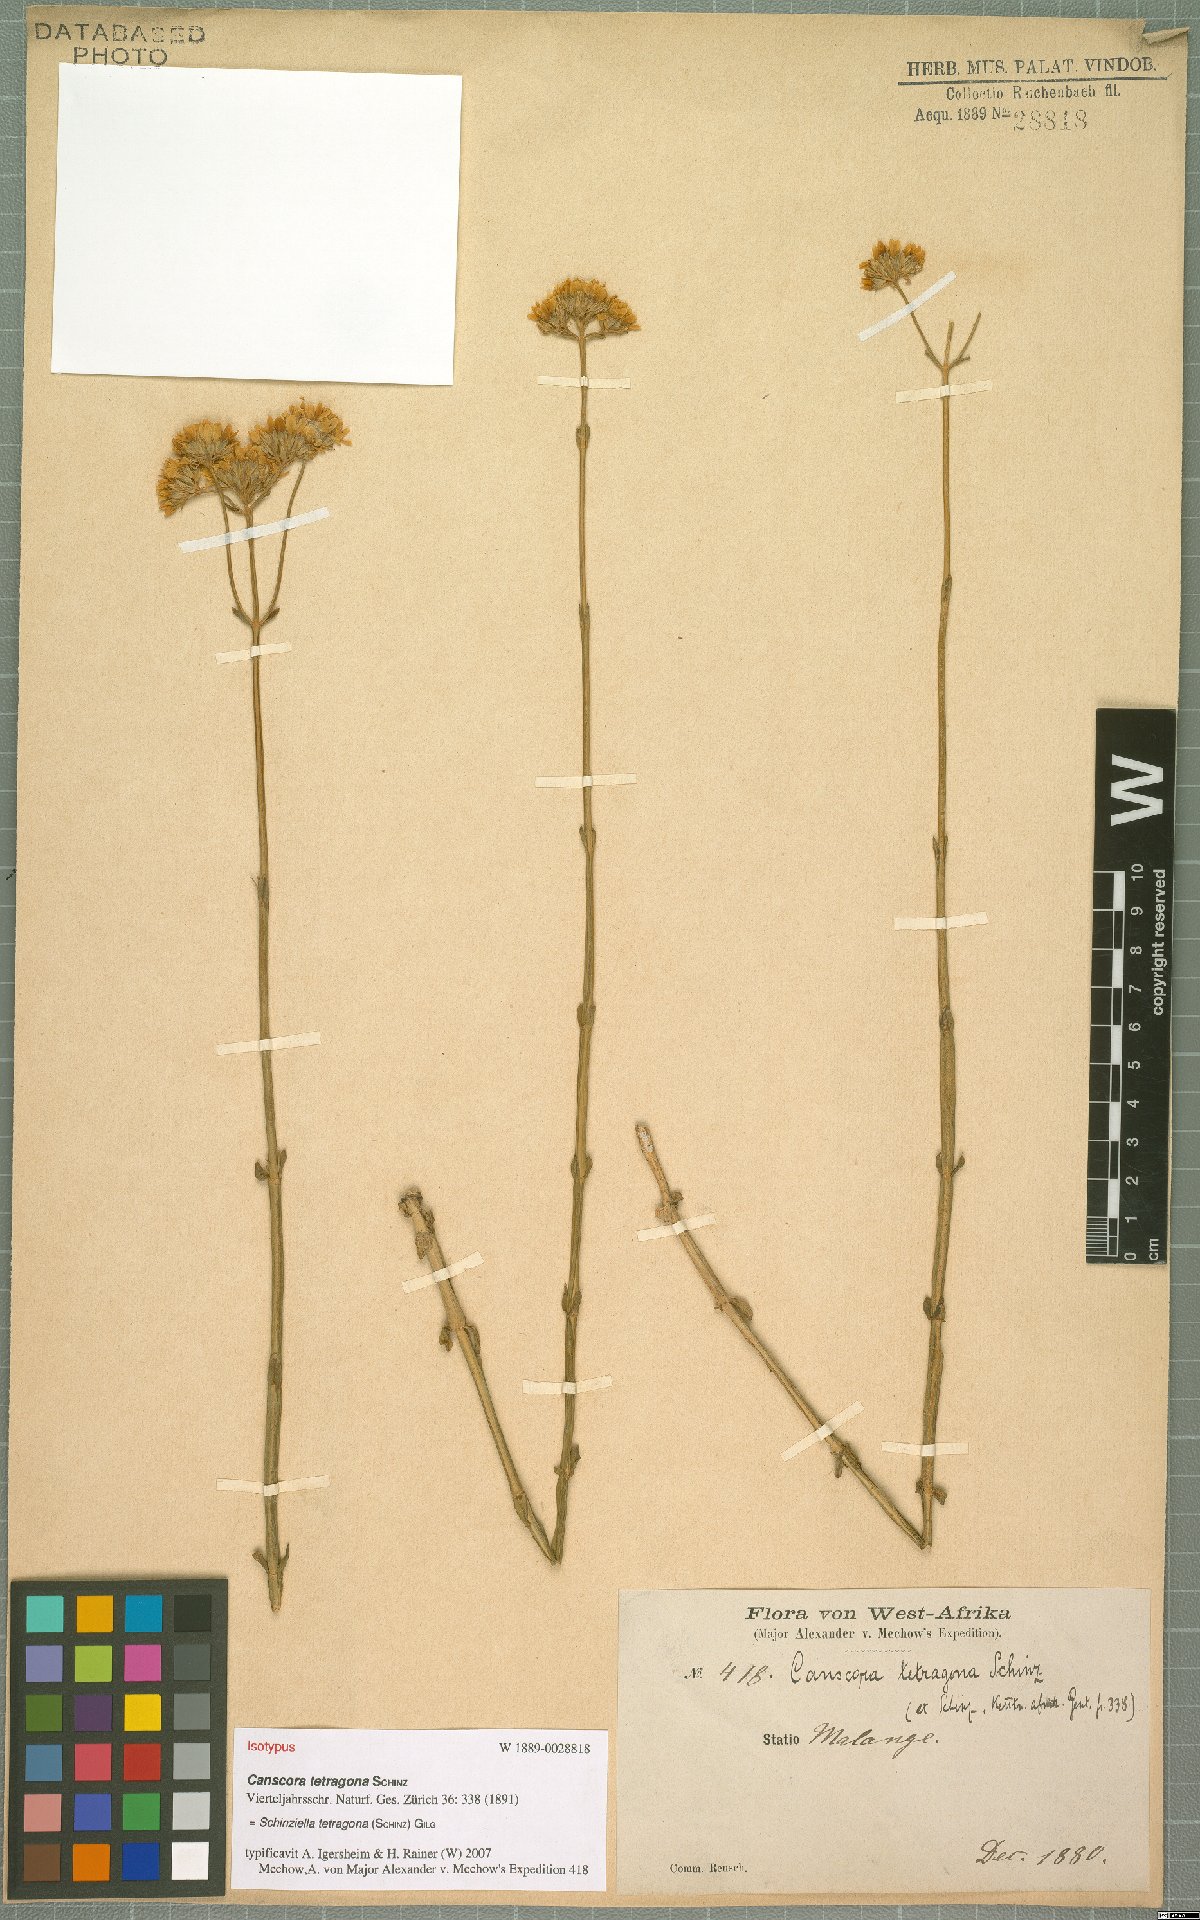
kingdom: Plantae
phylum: Tracheophyta
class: Magnoliopsida
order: Gentianales
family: Gentianaceae
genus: Schinziella
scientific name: Schinziella tetragona
